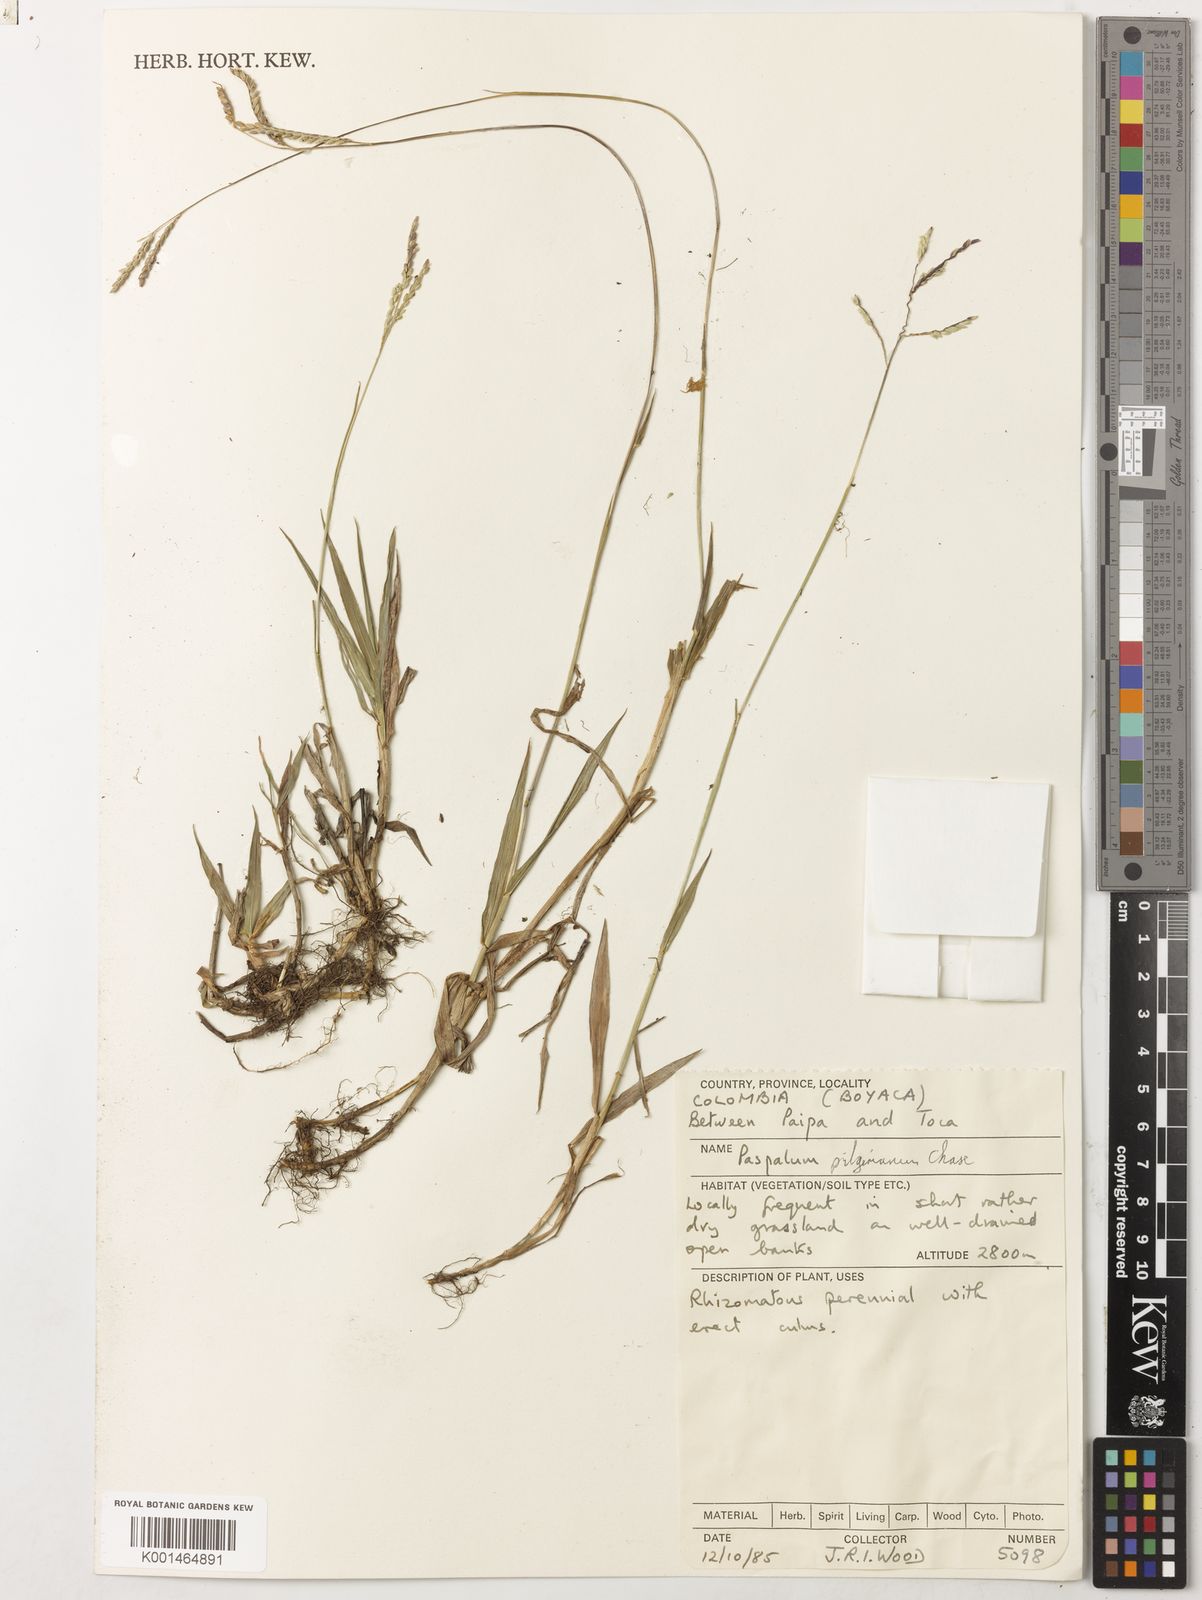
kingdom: Plantae
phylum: Tracheophyta
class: Liliopsida
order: Poales
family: Poaceae
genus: Paspalum
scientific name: Paspalum pilgerianum
